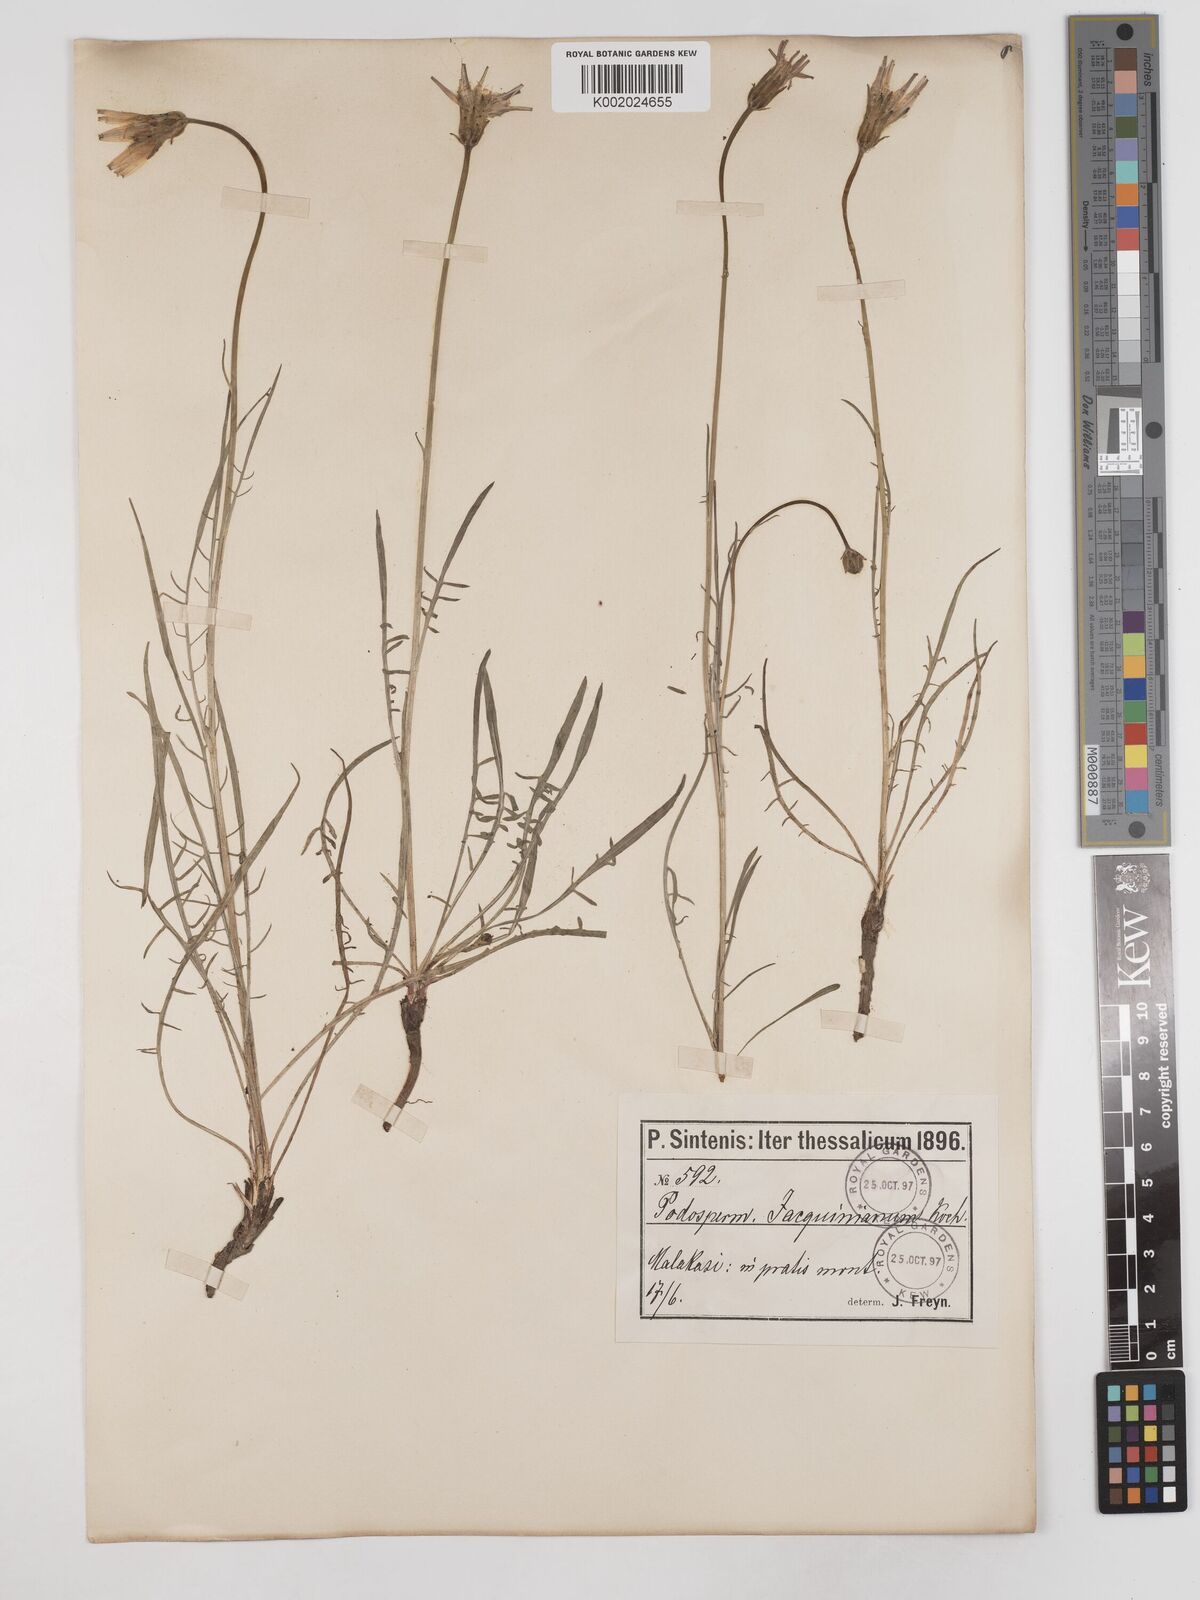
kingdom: Plantae
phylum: Tracheophyta
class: Magnoliopsida
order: Asterales
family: Asteraceae
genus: Scorzonera
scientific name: Scorzonera cana
